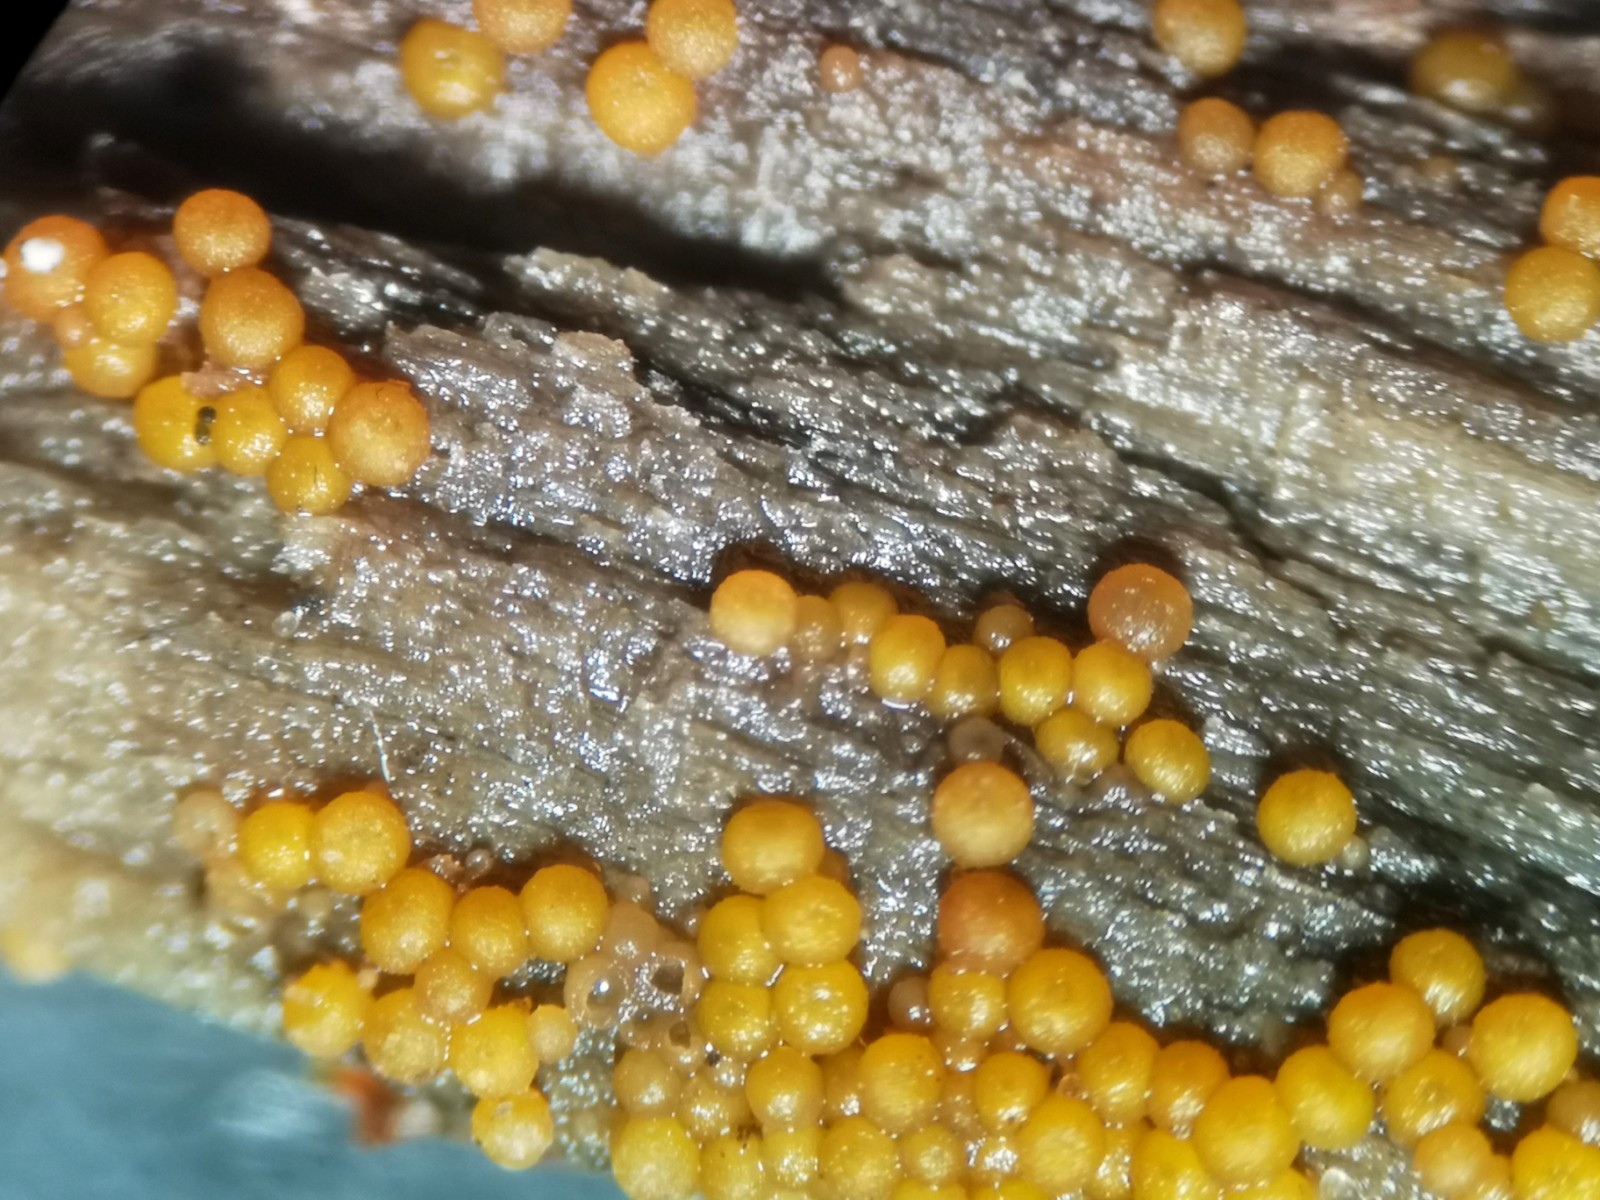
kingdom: Fungi
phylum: Ascomycota
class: Sordariomycetes
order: Hypocreales
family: Nectriaceae
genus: Hydropisphaera
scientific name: Hydropisphaera peziza
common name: skålformet gyldenkerne
